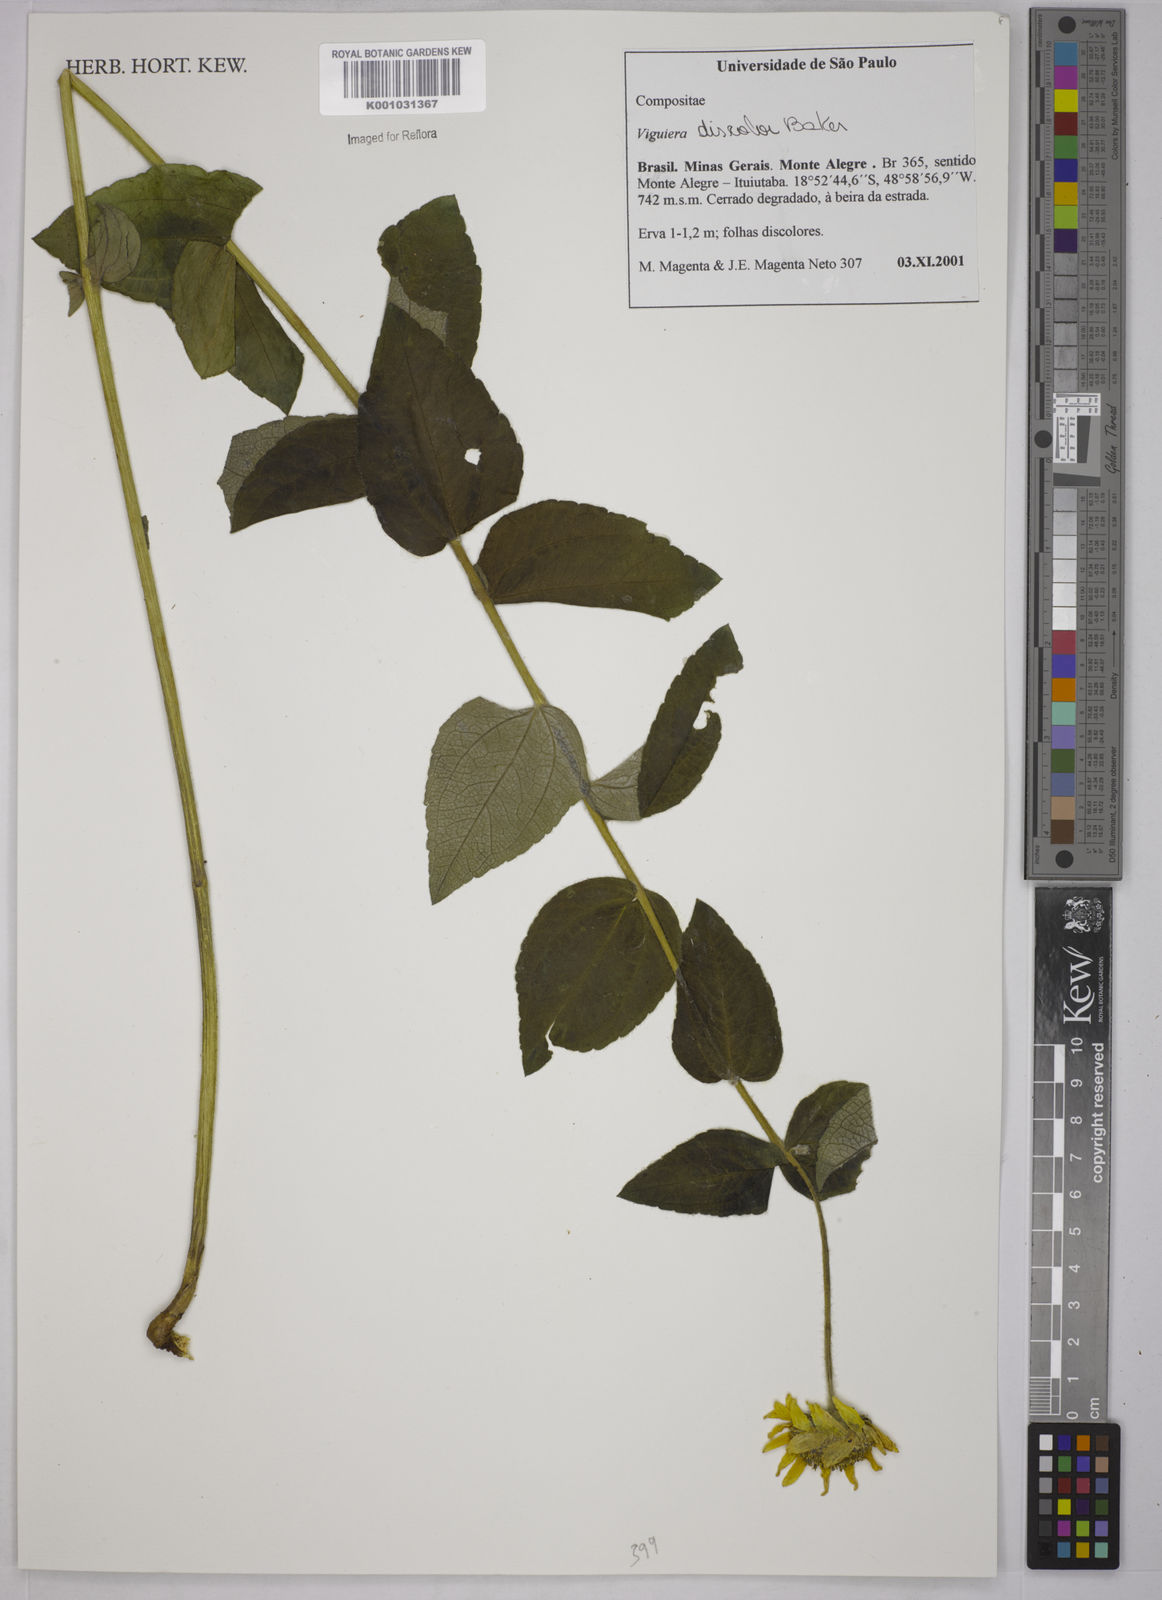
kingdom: Plantae
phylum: Tracheophyta
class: Magnoliopsida
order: Asterales
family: Asteraceae
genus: Aldama
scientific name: Aldama discolor
